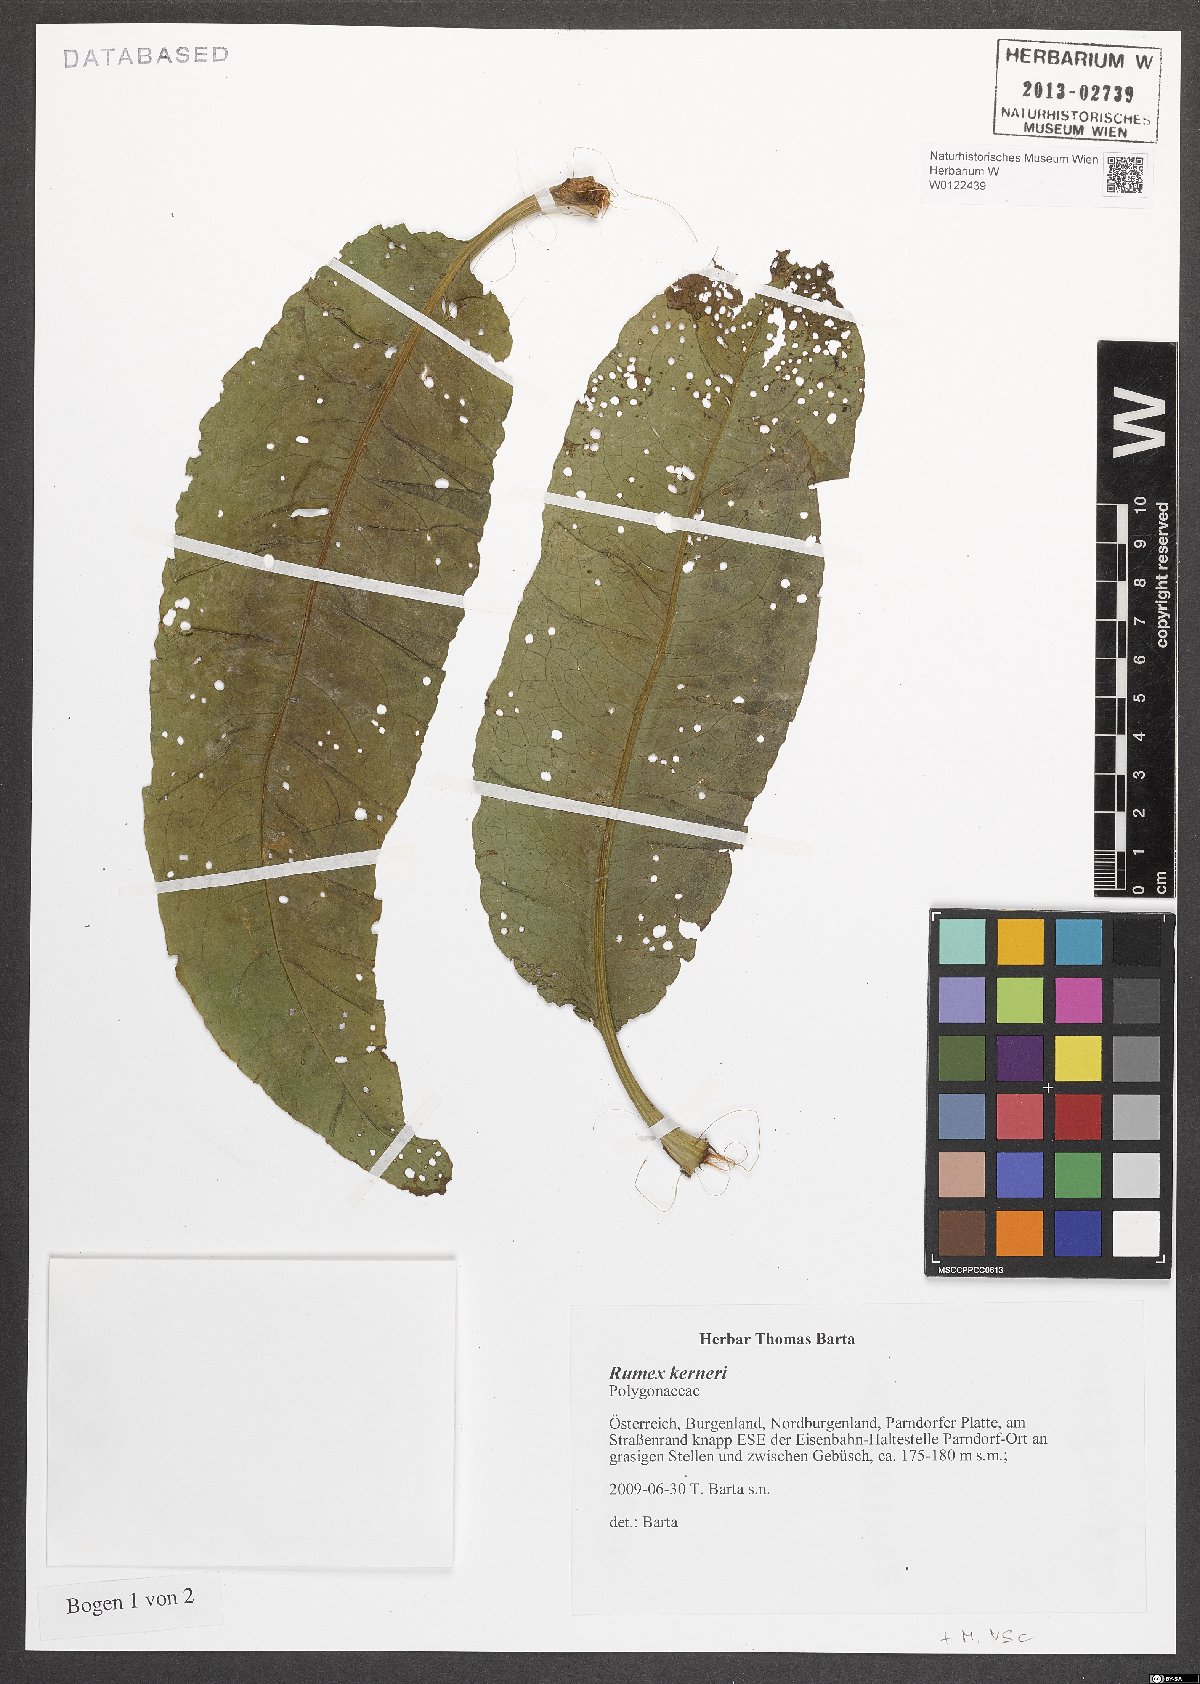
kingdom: Plantae
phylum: Tracheophyta
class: Magnoliopsida
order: Caryophyllales
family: Polygonaceae
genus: Rumex
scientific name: Rumex kerneri
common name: Kerner's dock
